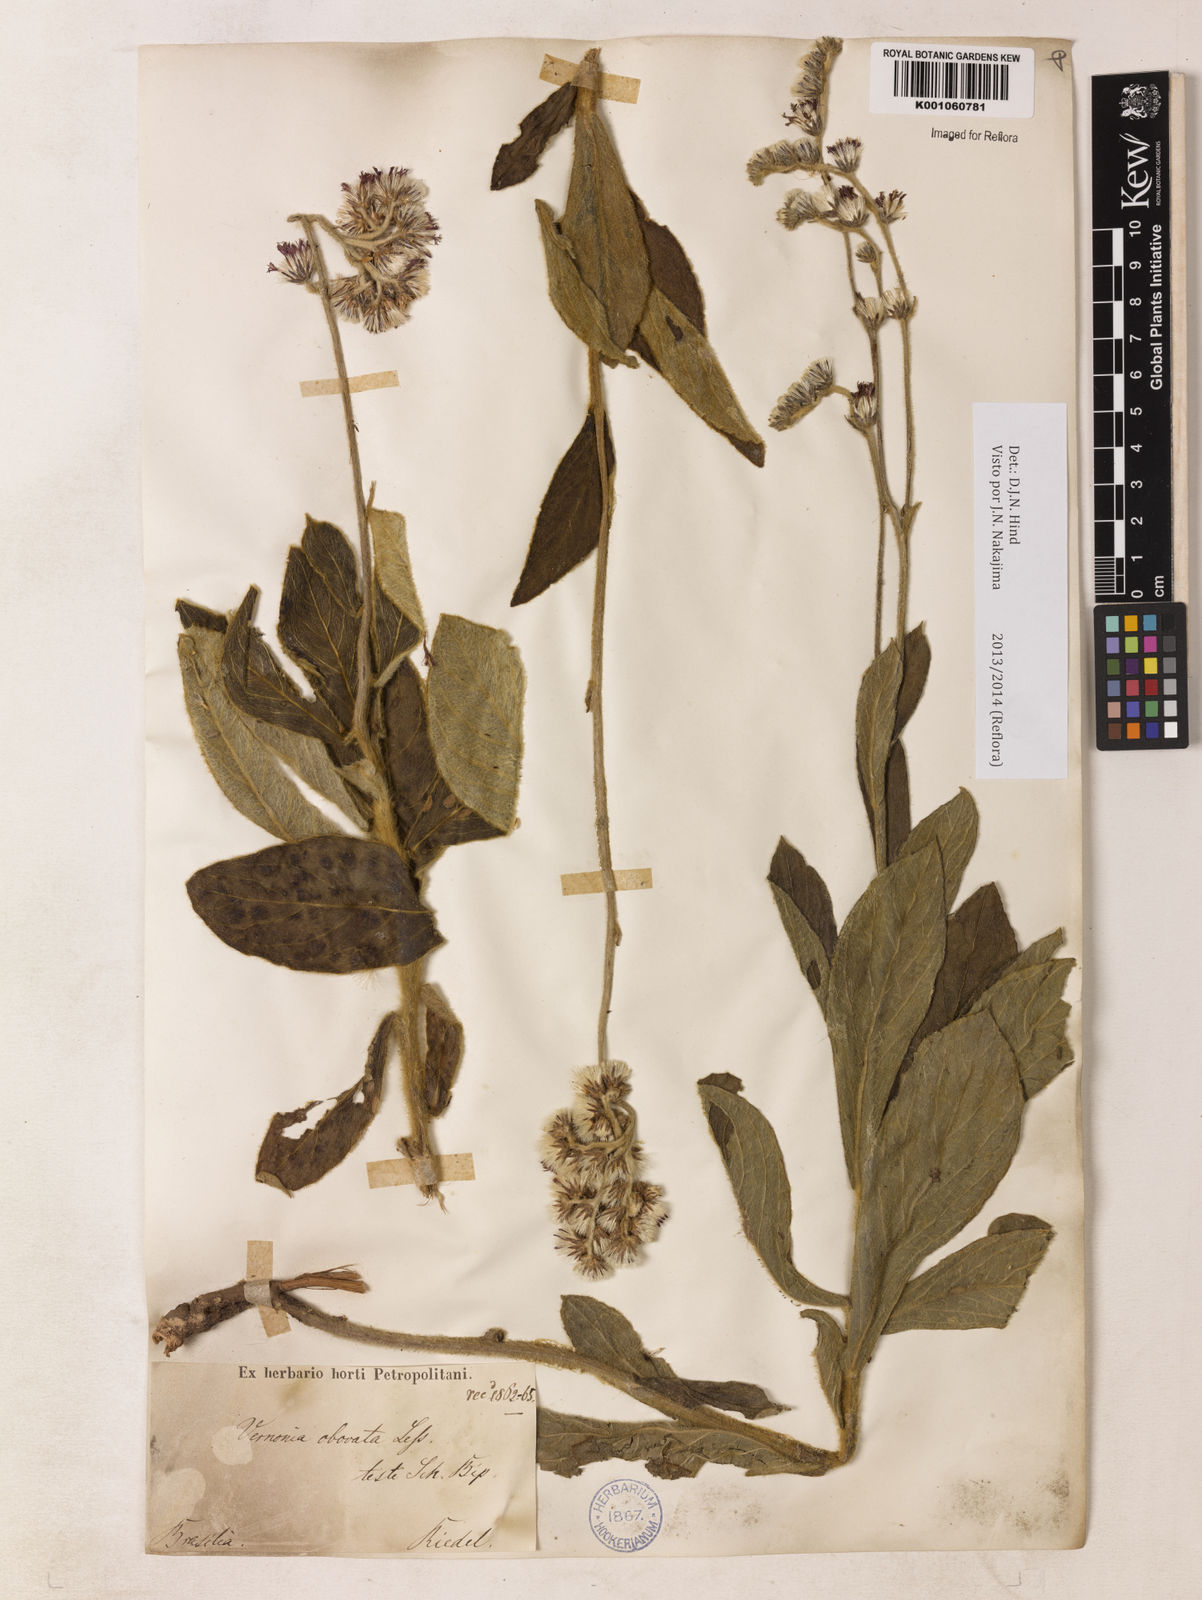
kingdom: Plantae
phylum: Tracheophyta
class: Magnoliopsida
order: Asterales
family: Asteraceae
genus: Chrysolaena
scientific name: Chrysolaena obovata
